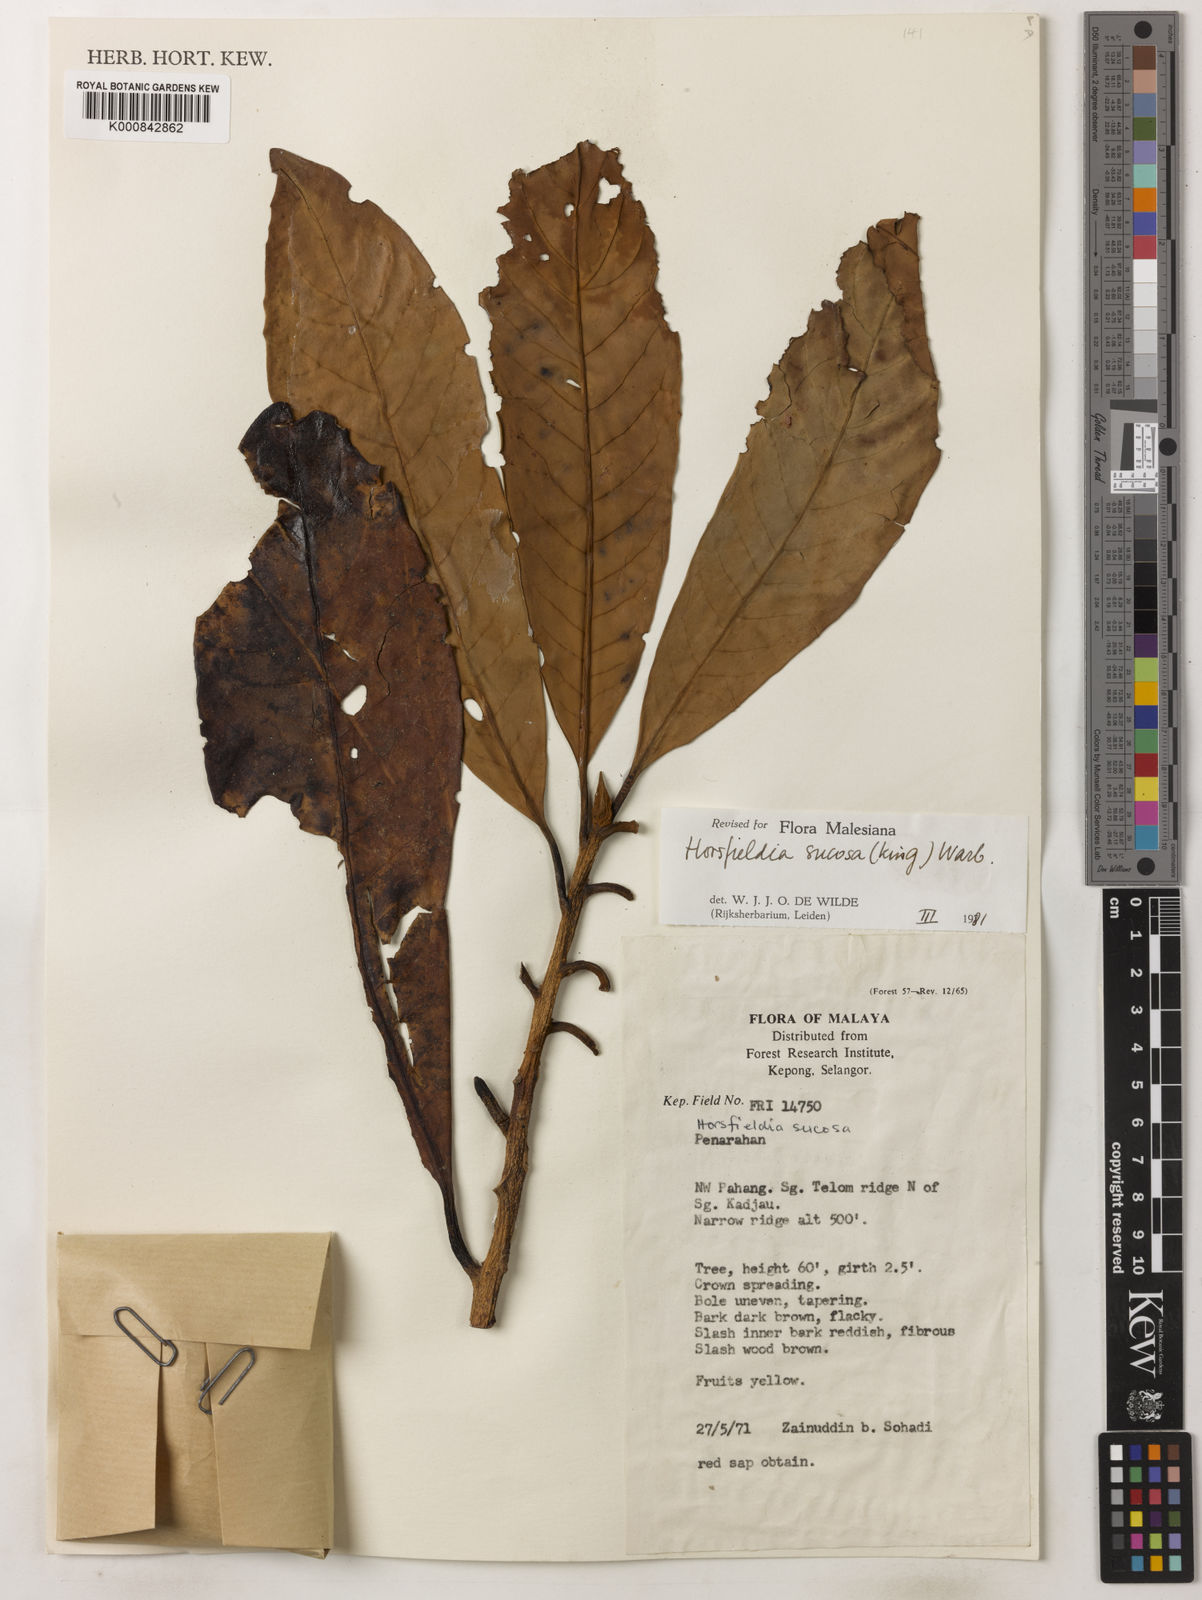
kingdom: Plantae
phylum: Tracheophyta
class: Magnoliopsida
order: Magnoliales
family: Myristicaceae
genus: Horsfieldia
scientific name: Horsfieldia sucosa
